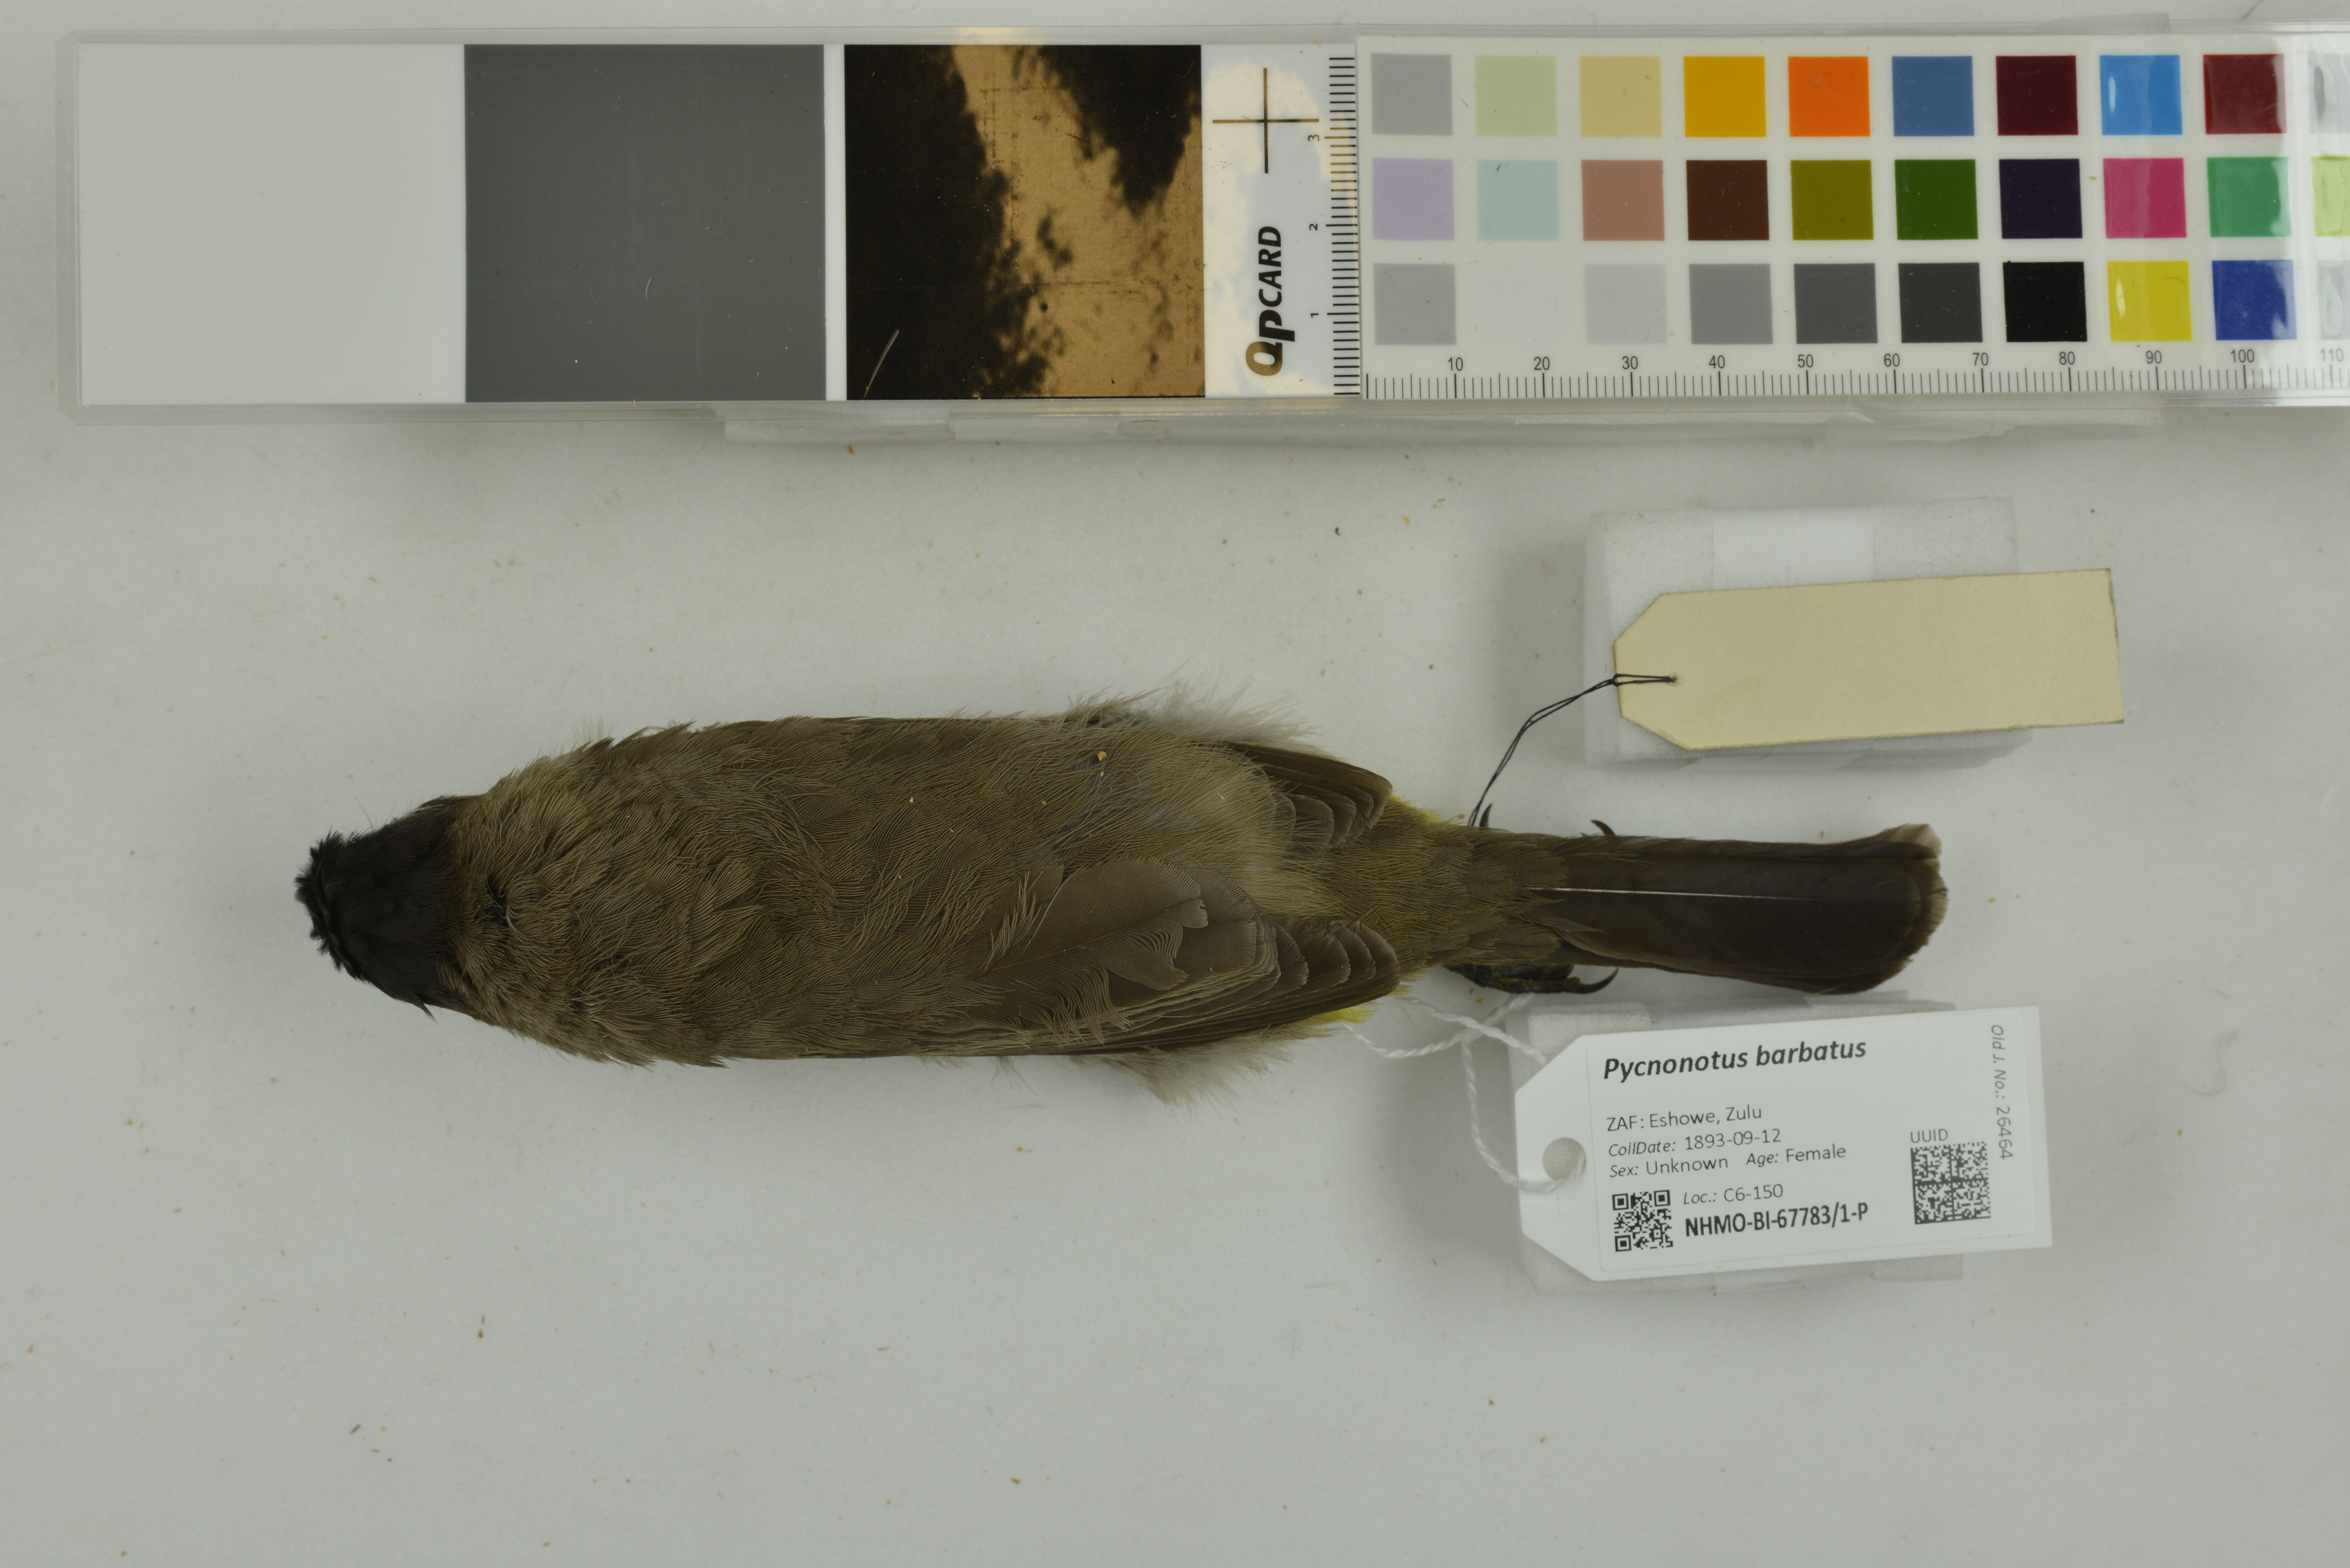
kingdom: Animalia
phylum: Chordata
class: Aves
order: Passeriformes
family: Pycnonotidae
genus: Pycnonotus
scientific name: Pycnonotus barbatus
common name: Common bulbul
